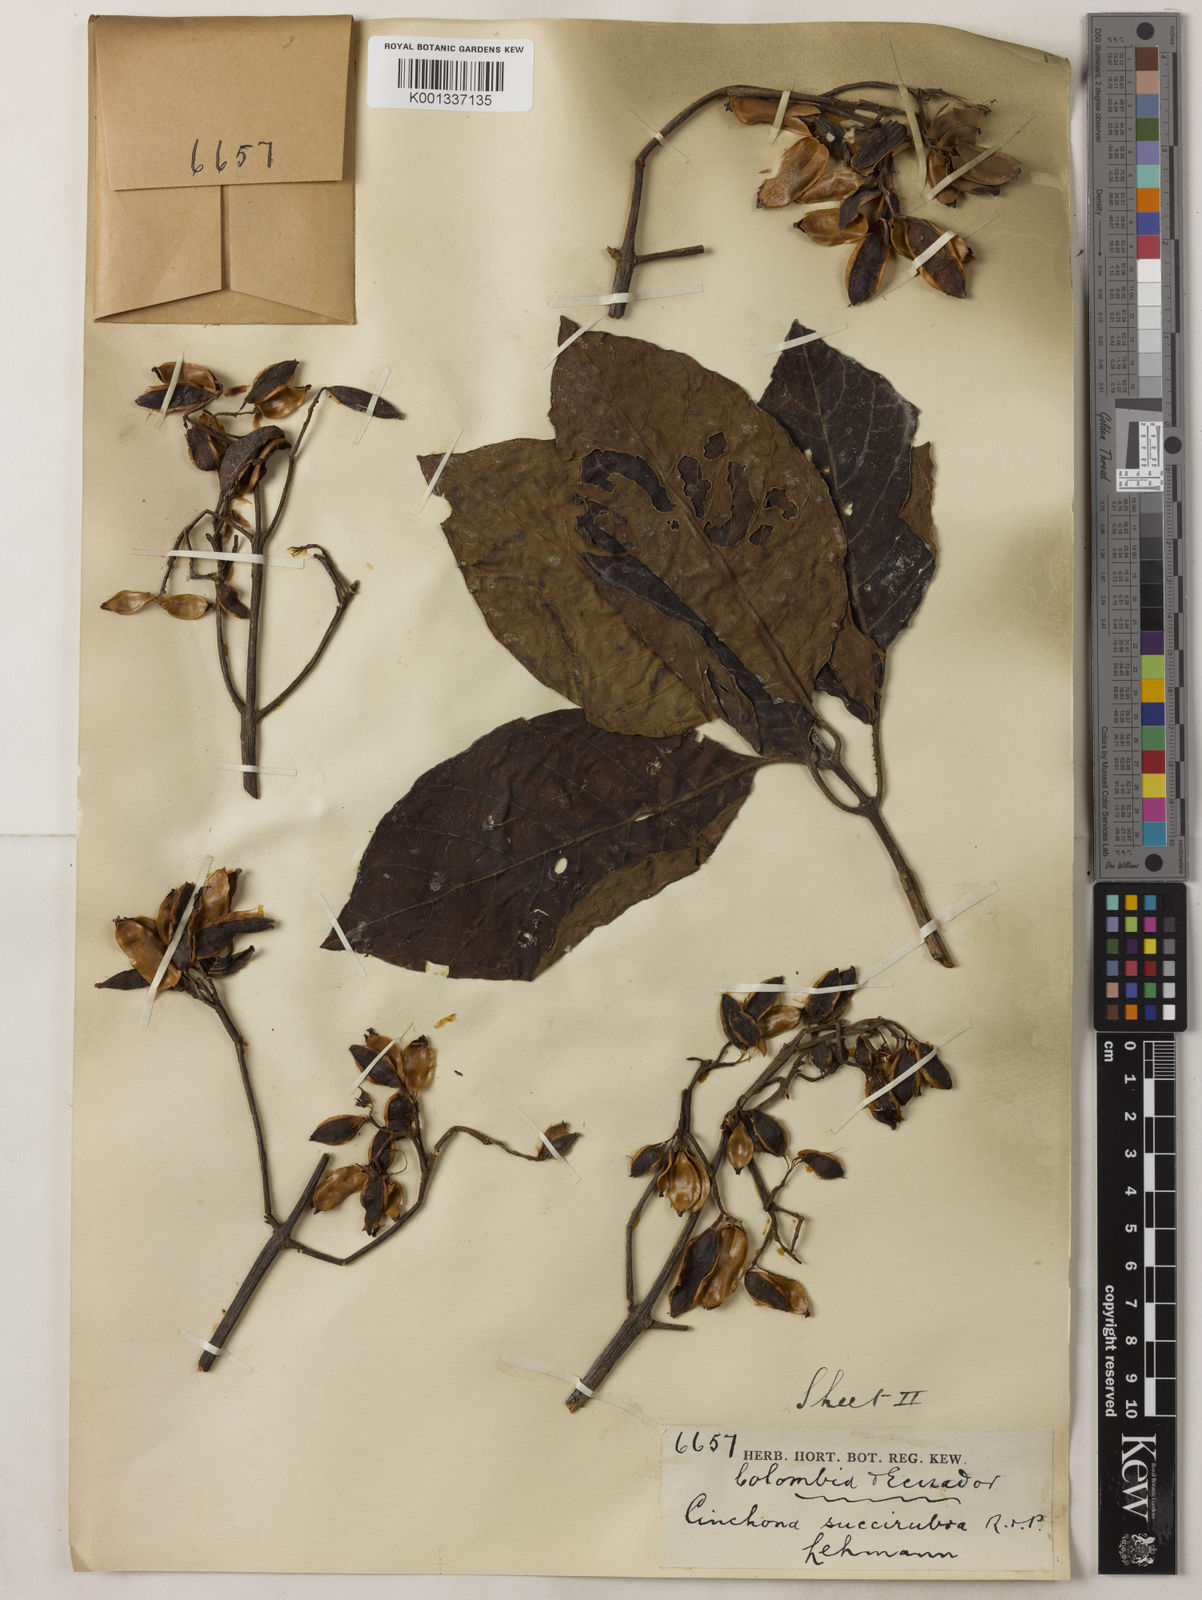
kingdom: Plantae
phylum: Tracheophyta
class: Magnoliopsida
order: Gentianales
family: Rubiaceae
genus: Cinchona
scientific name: Cinchona pubescens
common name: Quinine
